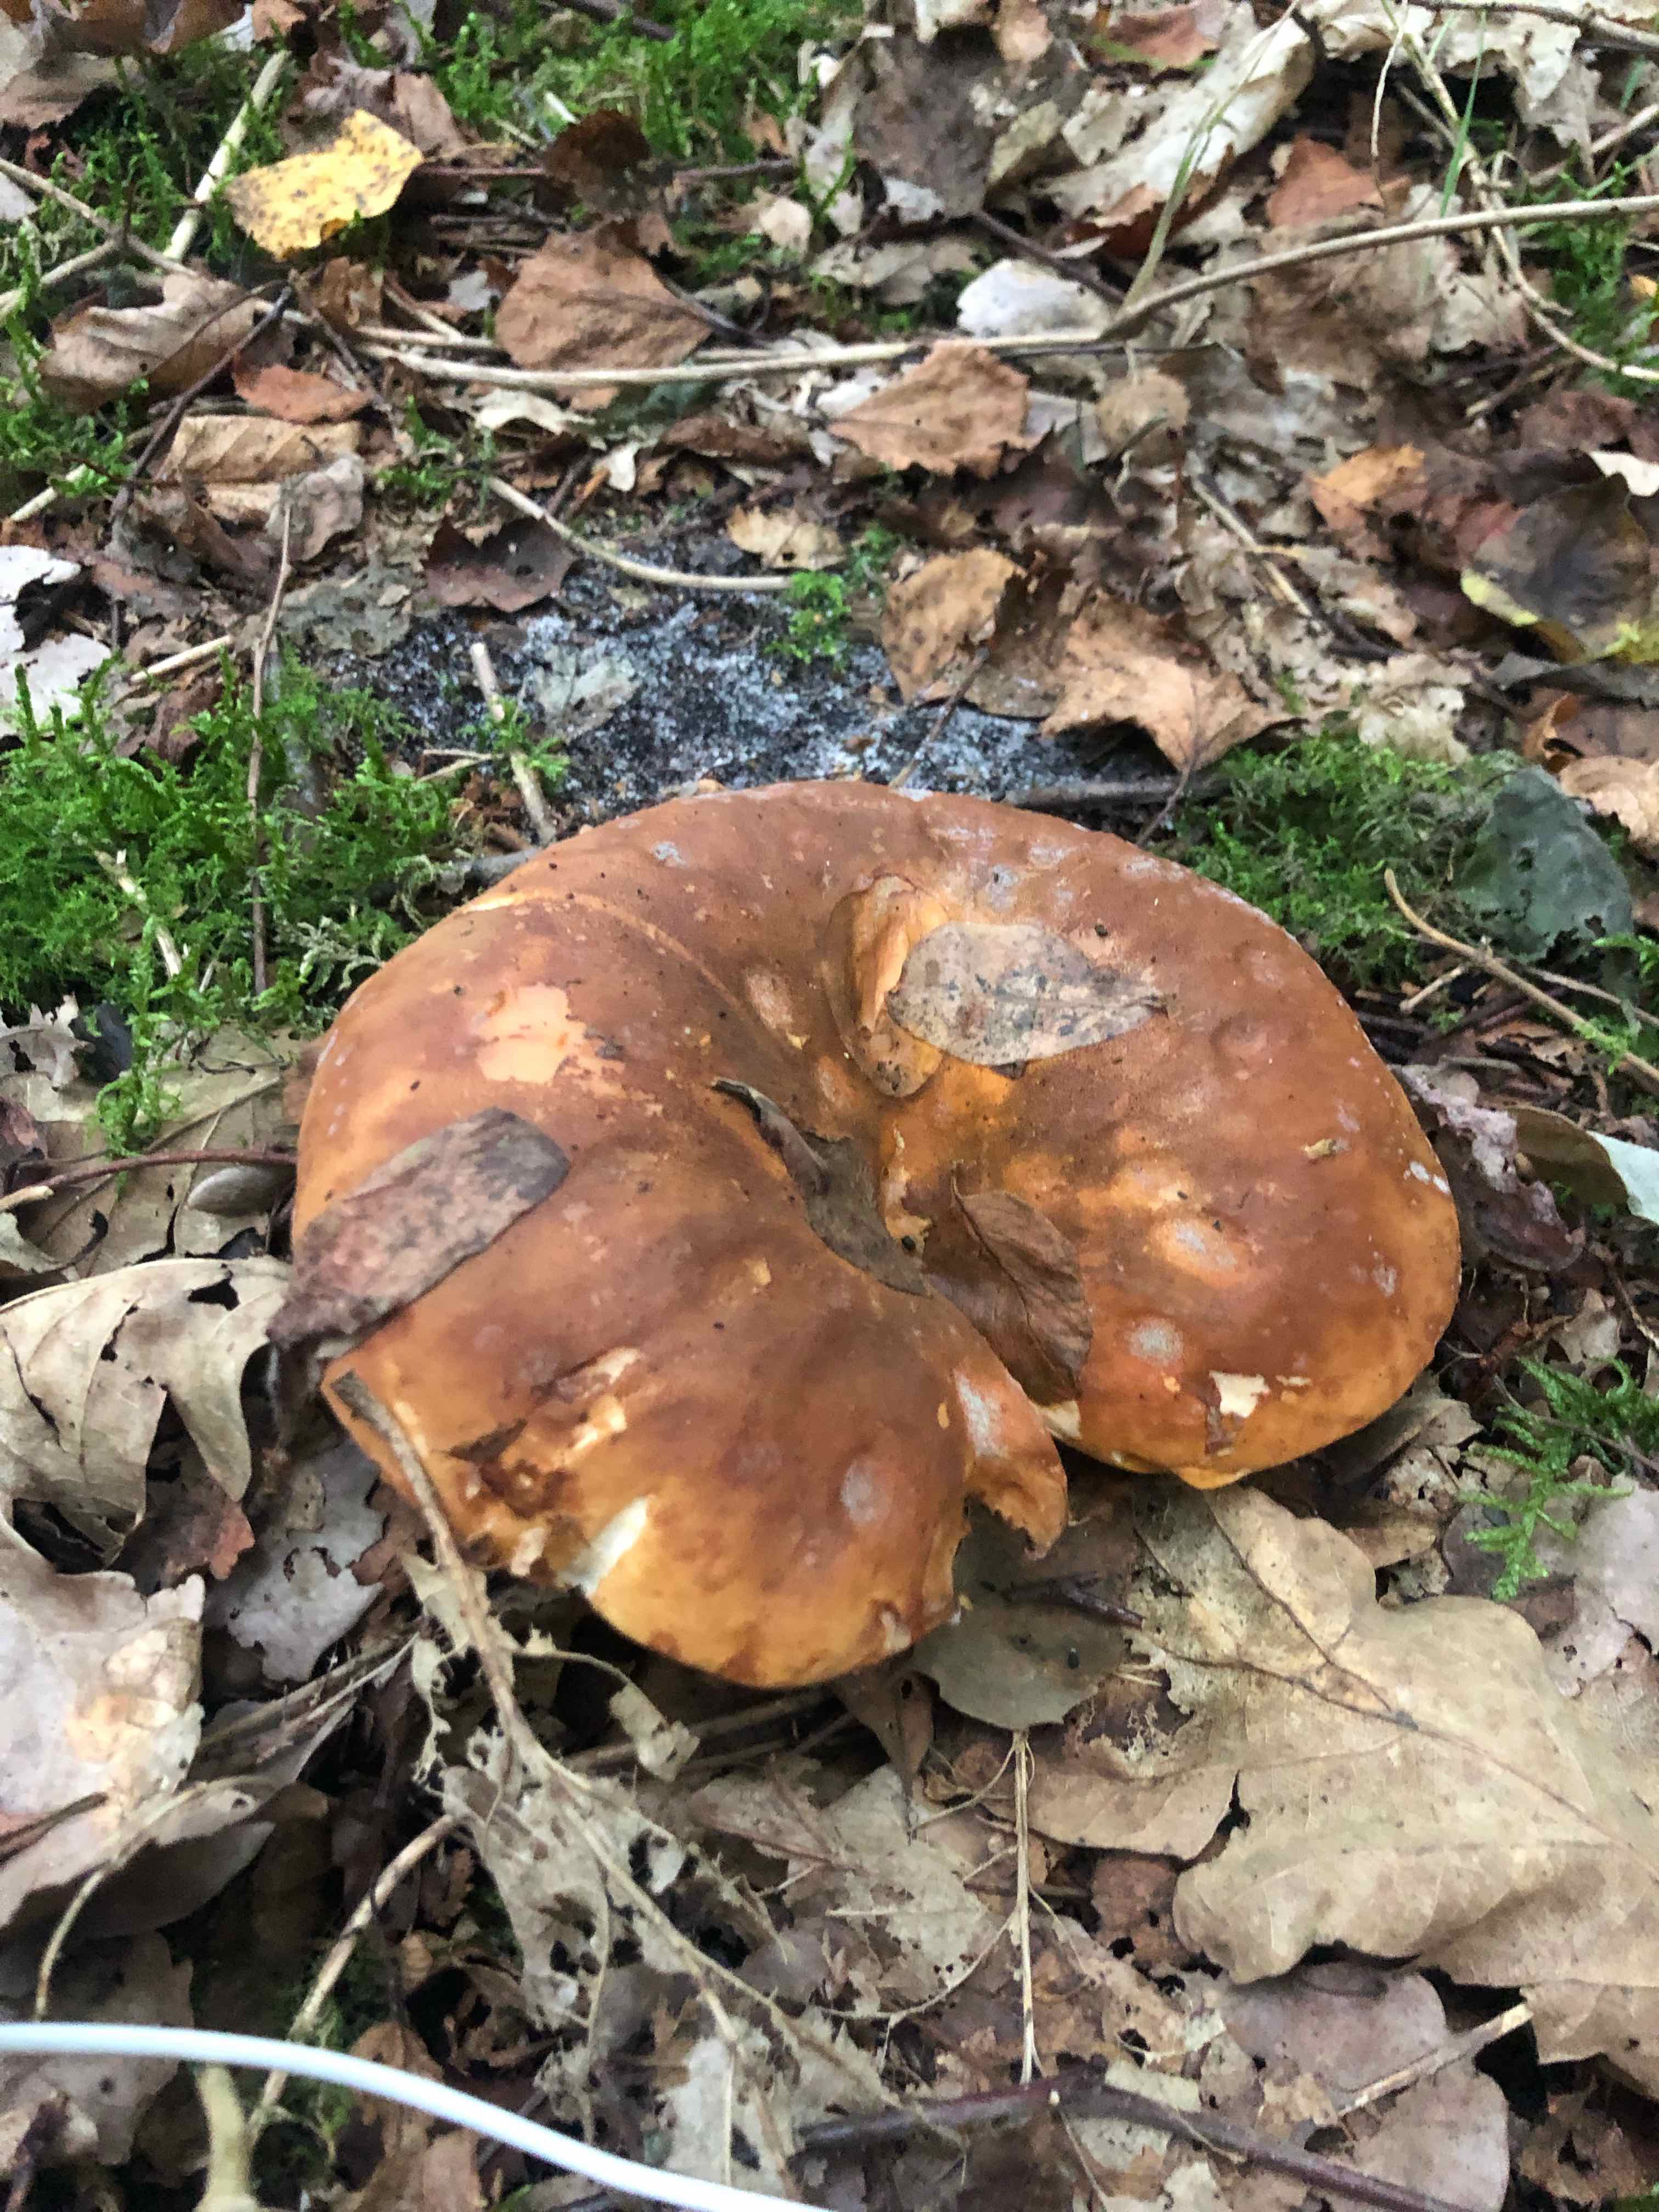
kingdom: Fungi
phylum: Basidiomycota
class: Agaricomycetes
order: Boletales
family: Tapinellaceae
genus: Tapinella
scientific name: Tapinella atrotomentosa
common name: sortfiltet viftesvamp
